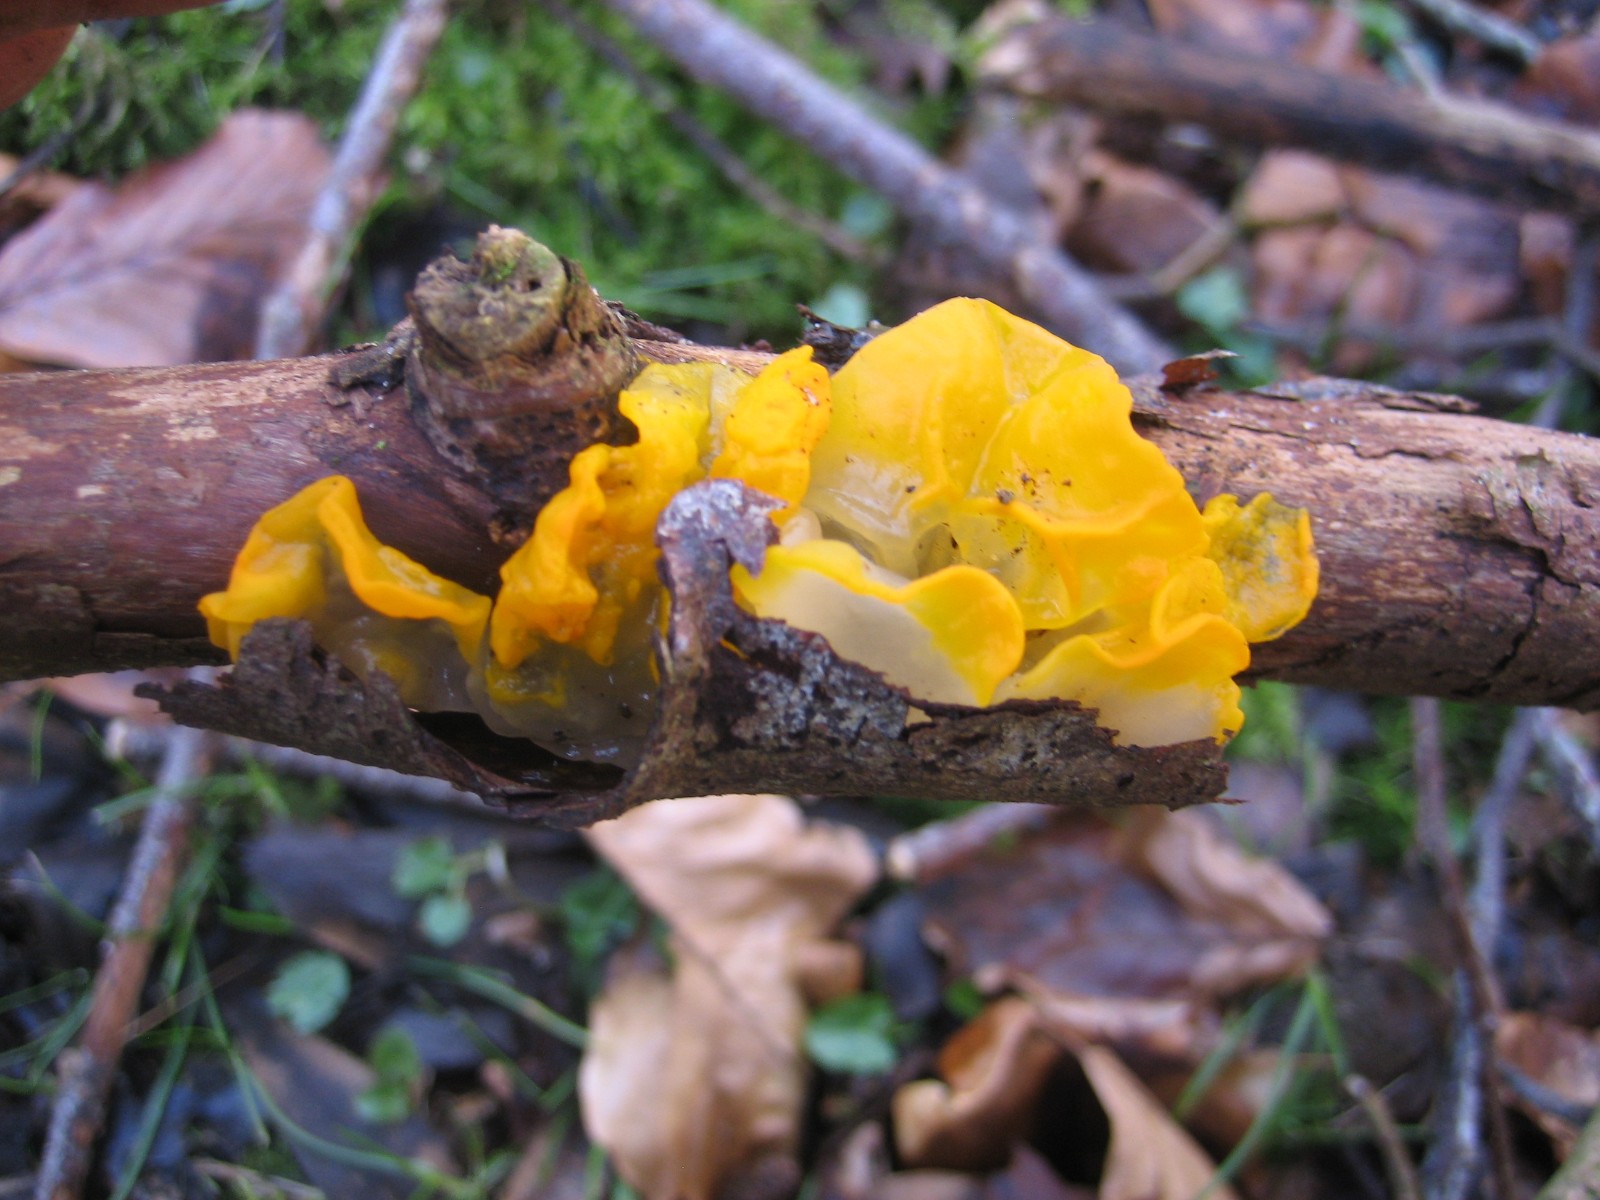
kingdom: Fungi
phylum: Basidiomycota
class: Tremellomycetes
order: Tremellales
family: Tremellaceae
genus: Tremella
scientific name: Tremella mesenterica
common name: gul bævresvamp
